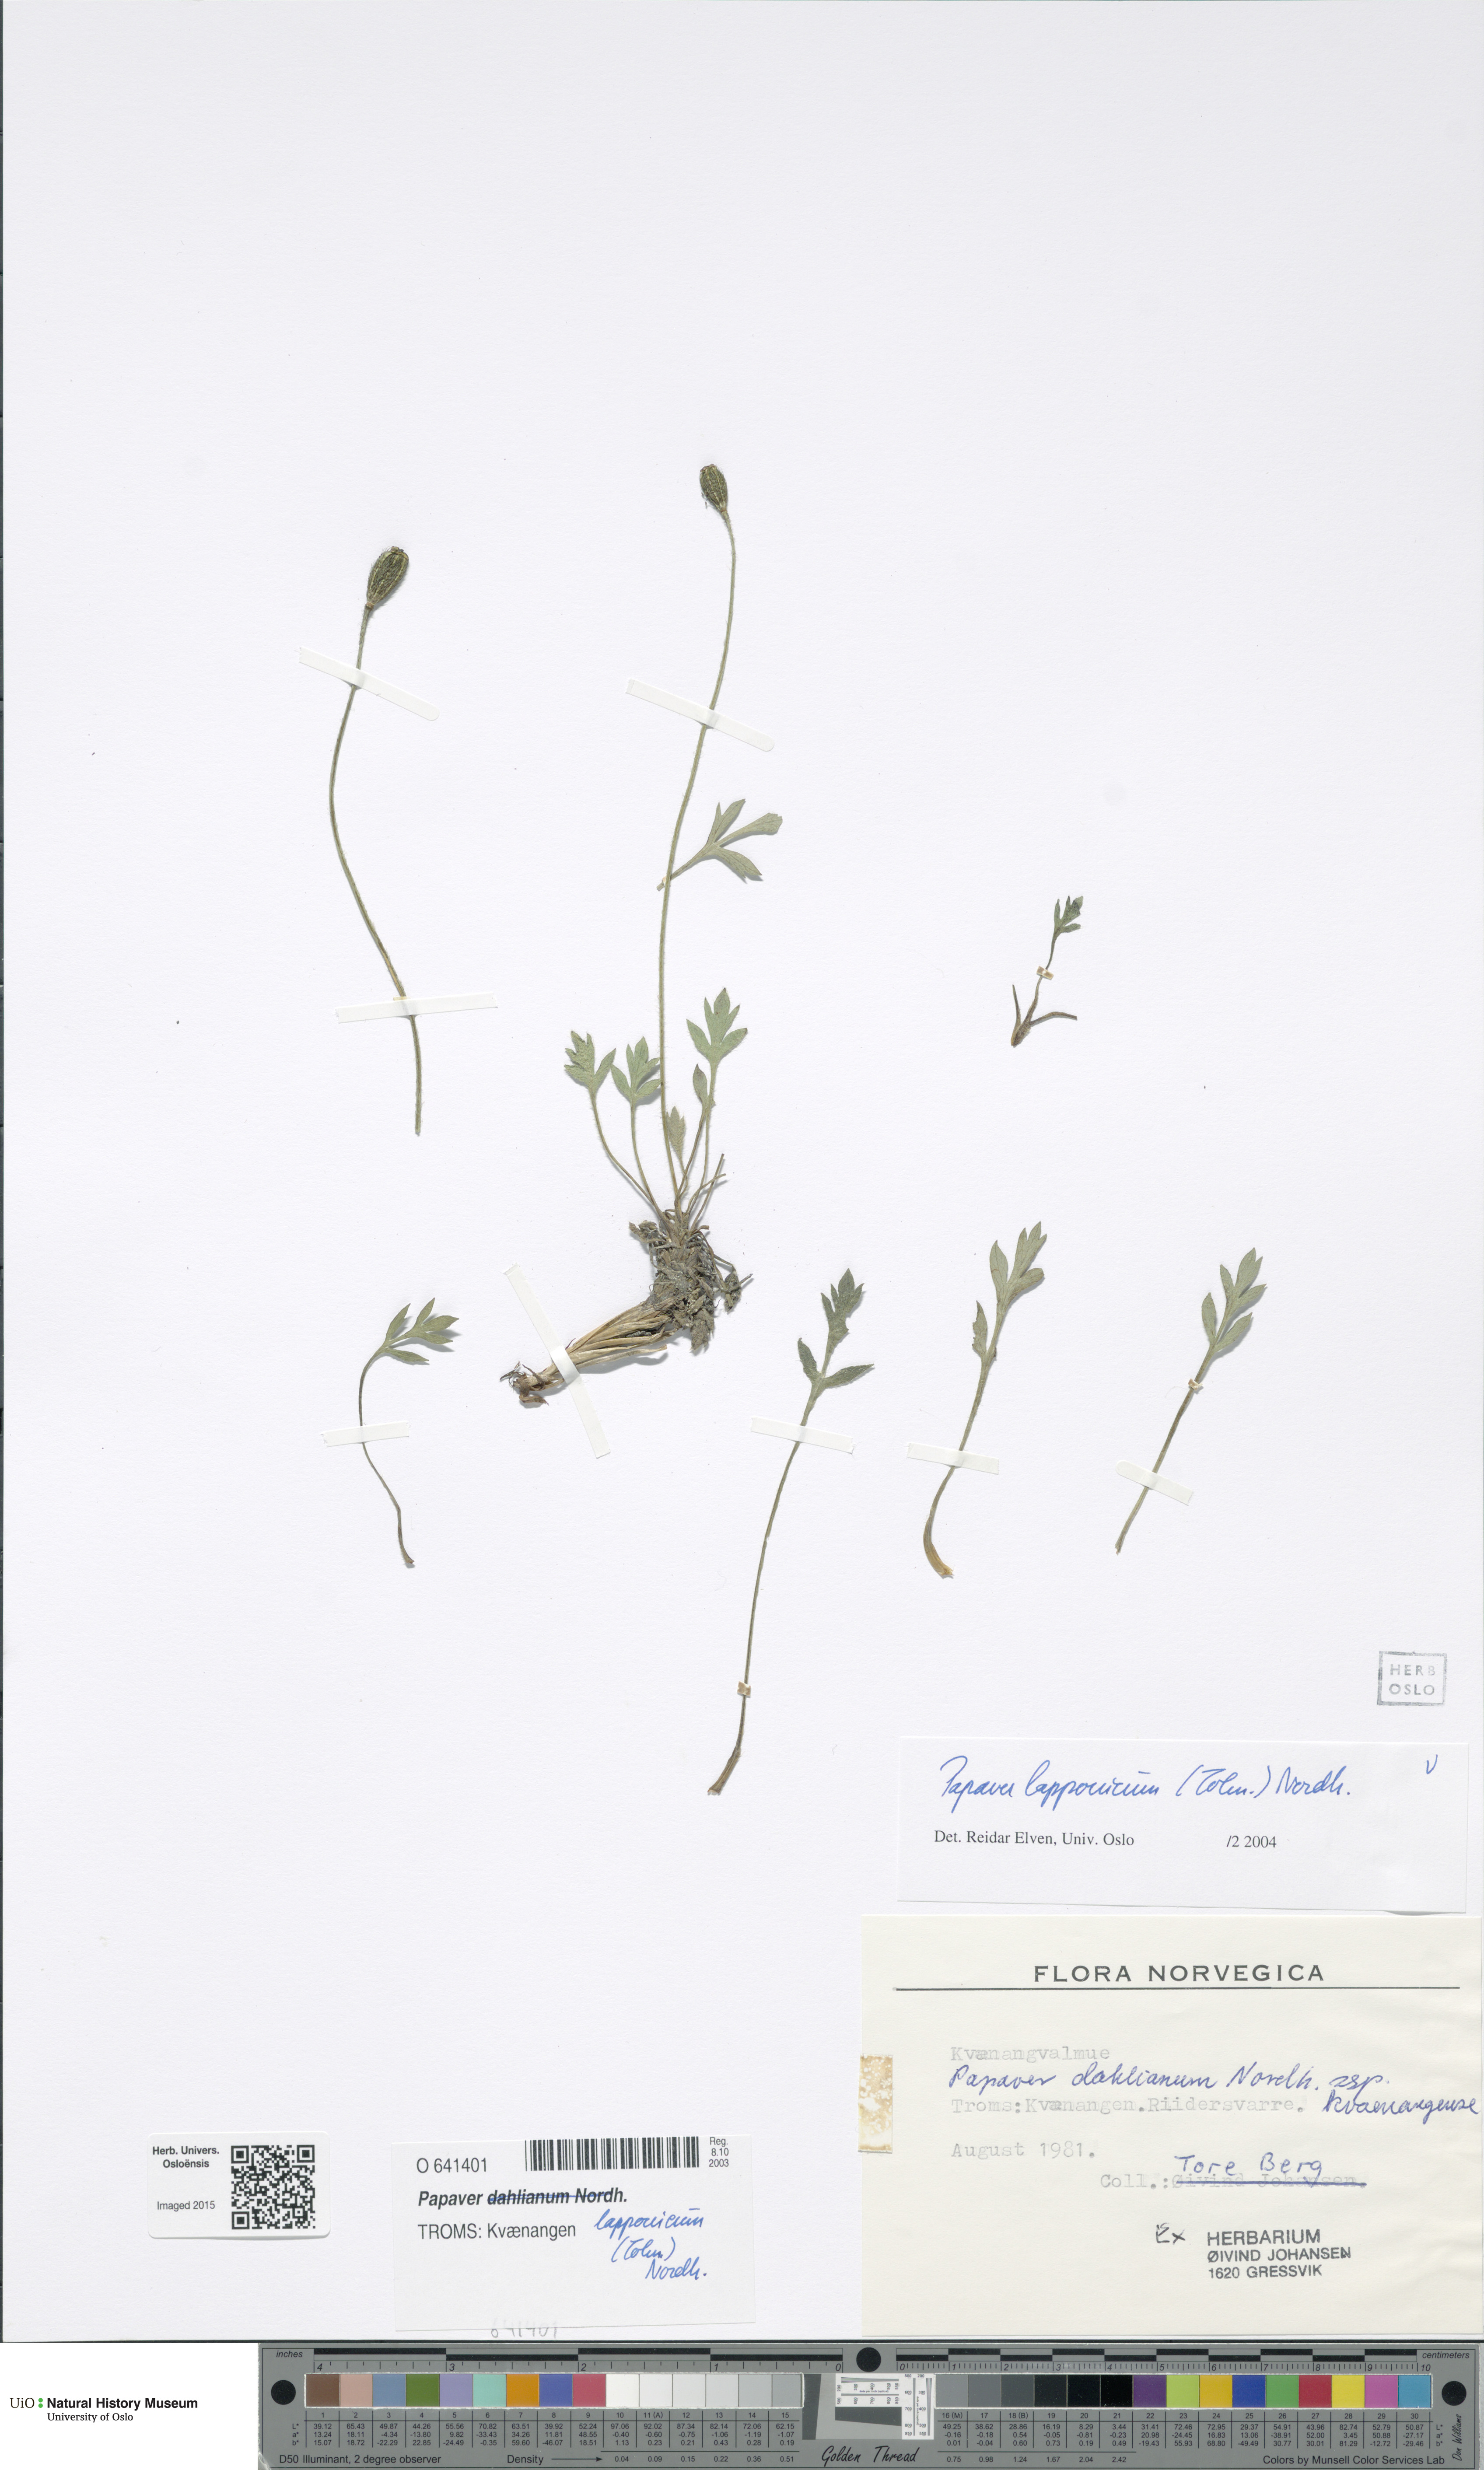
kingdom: Plantae
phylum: Tracheophyta
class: Magnoliopsida
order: Ranunculales
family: Papaveraceae
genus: Papaver
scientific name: Papaver lapponicum
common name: Lapland poppy
